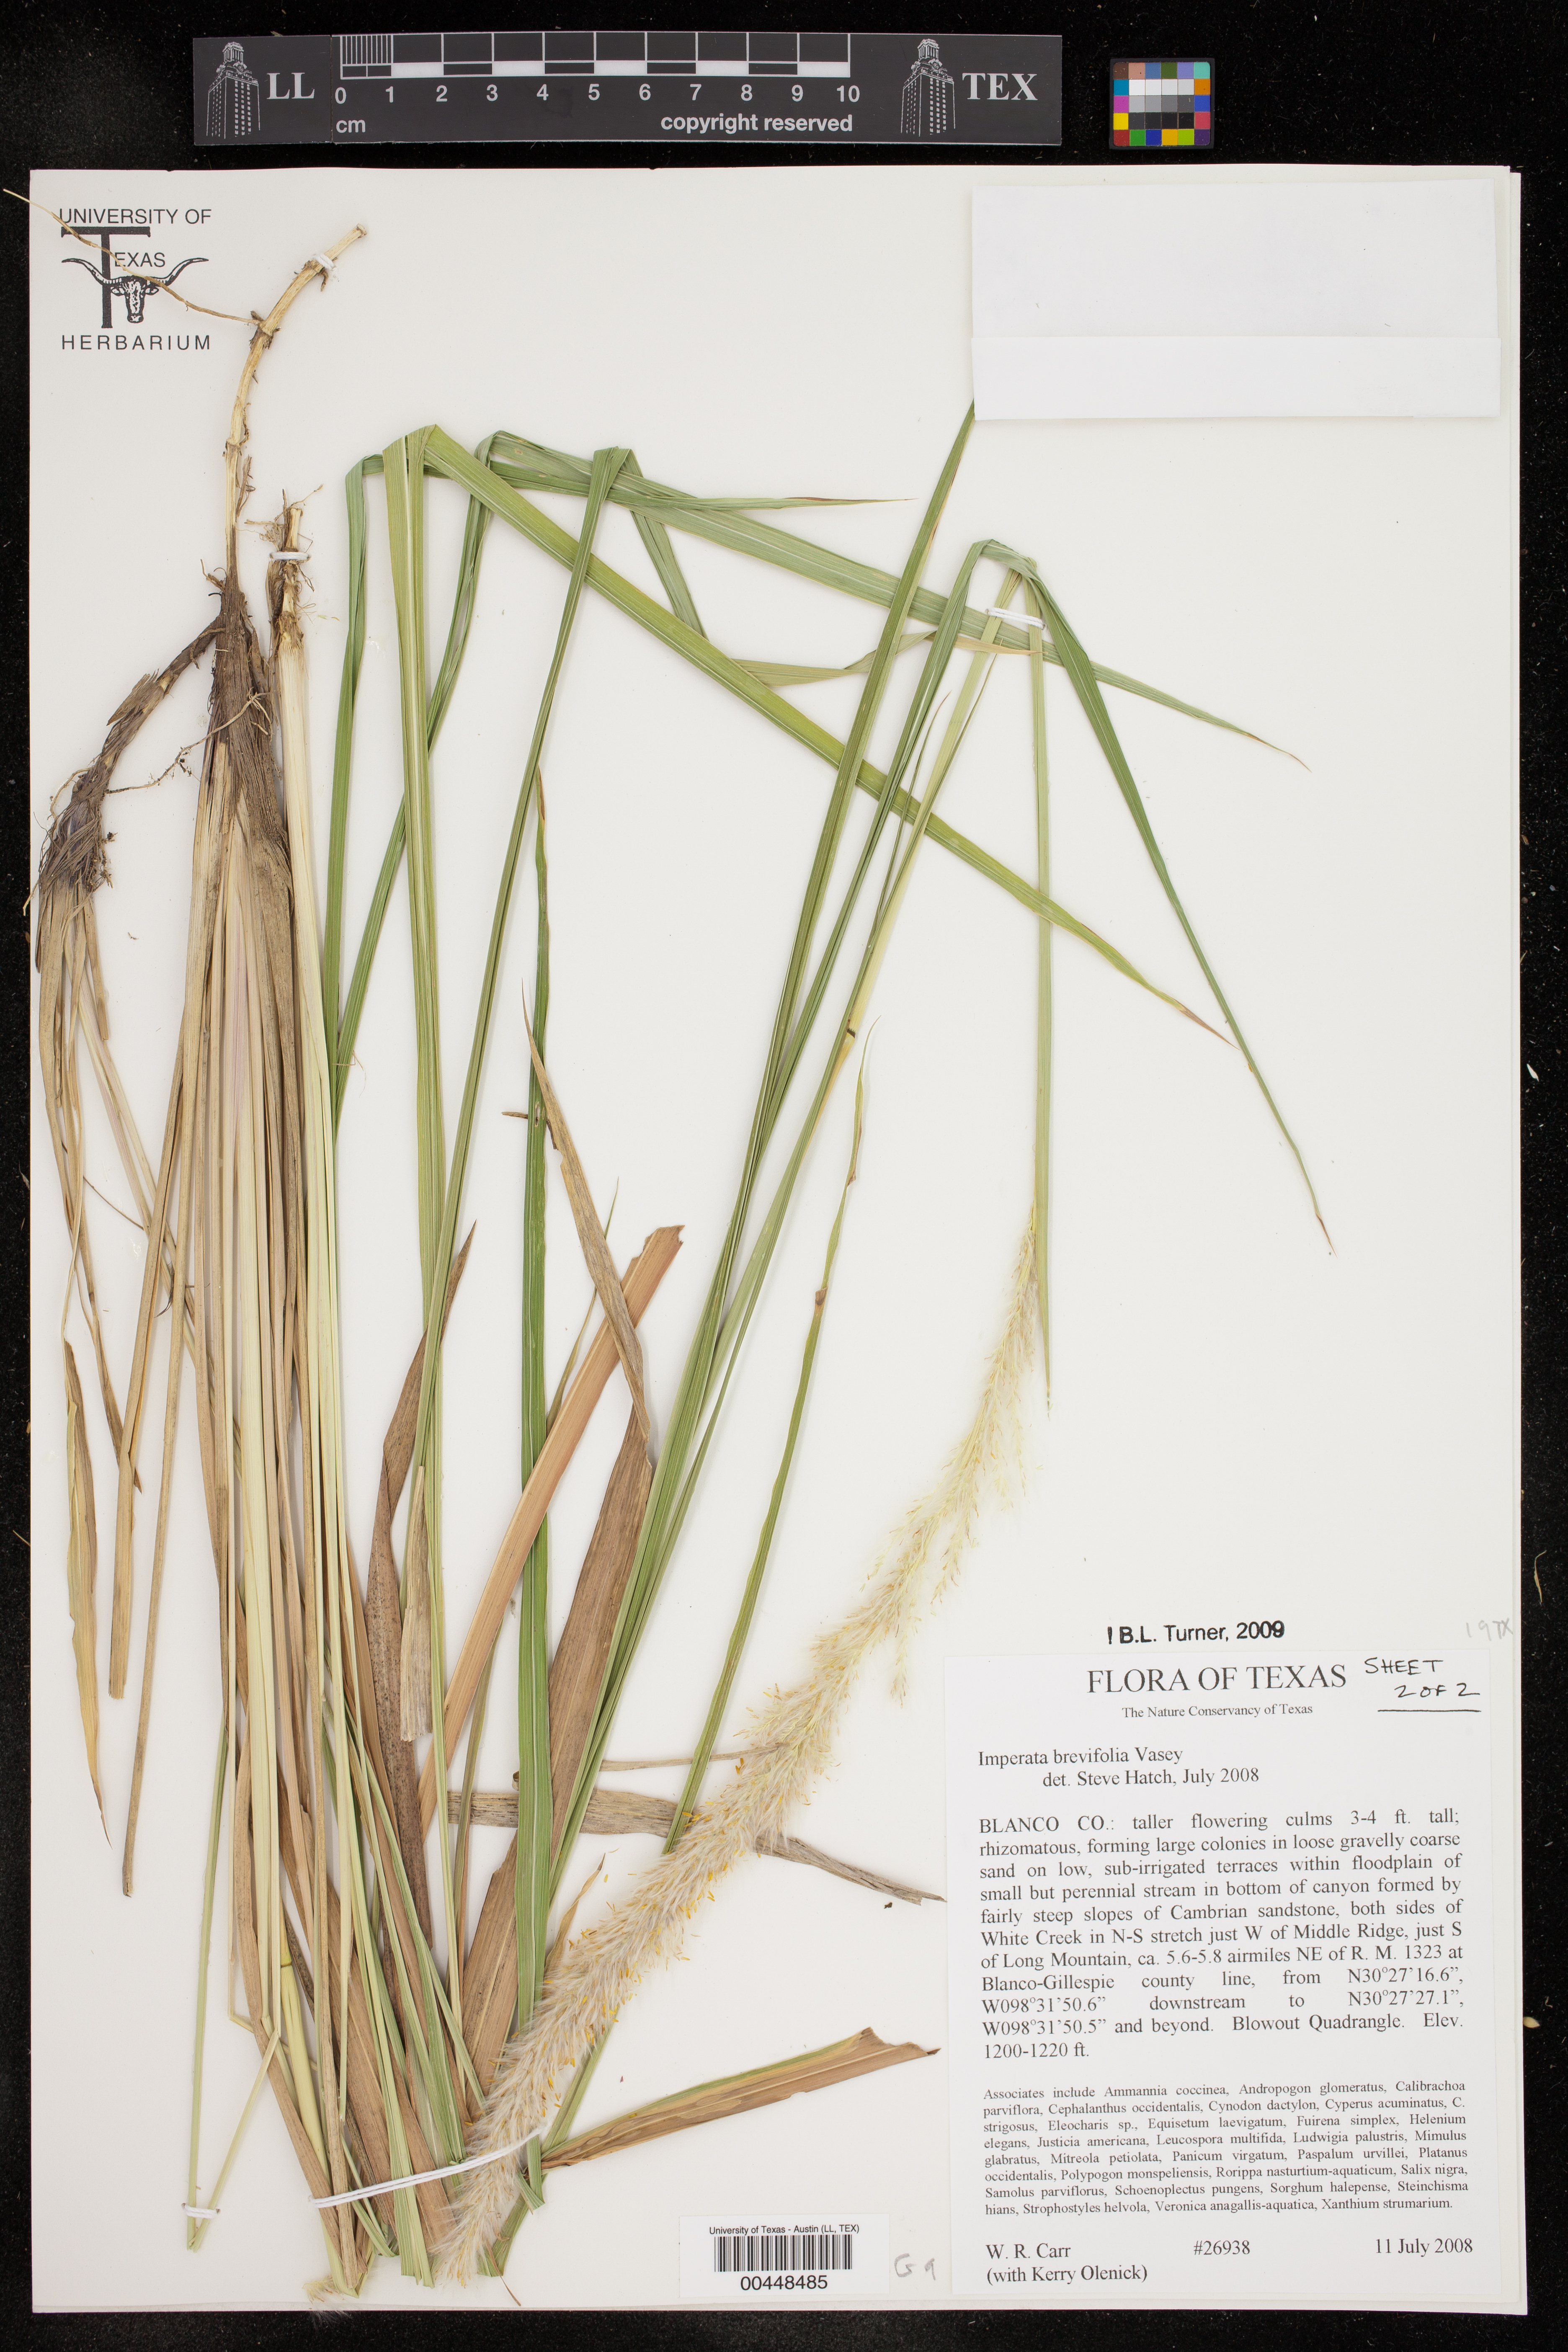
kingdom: Plantae
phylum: Tracheophyta
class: Liliopsida
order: Poales
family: Poaceae
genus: Imperata
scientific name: Imperata brevifolia
